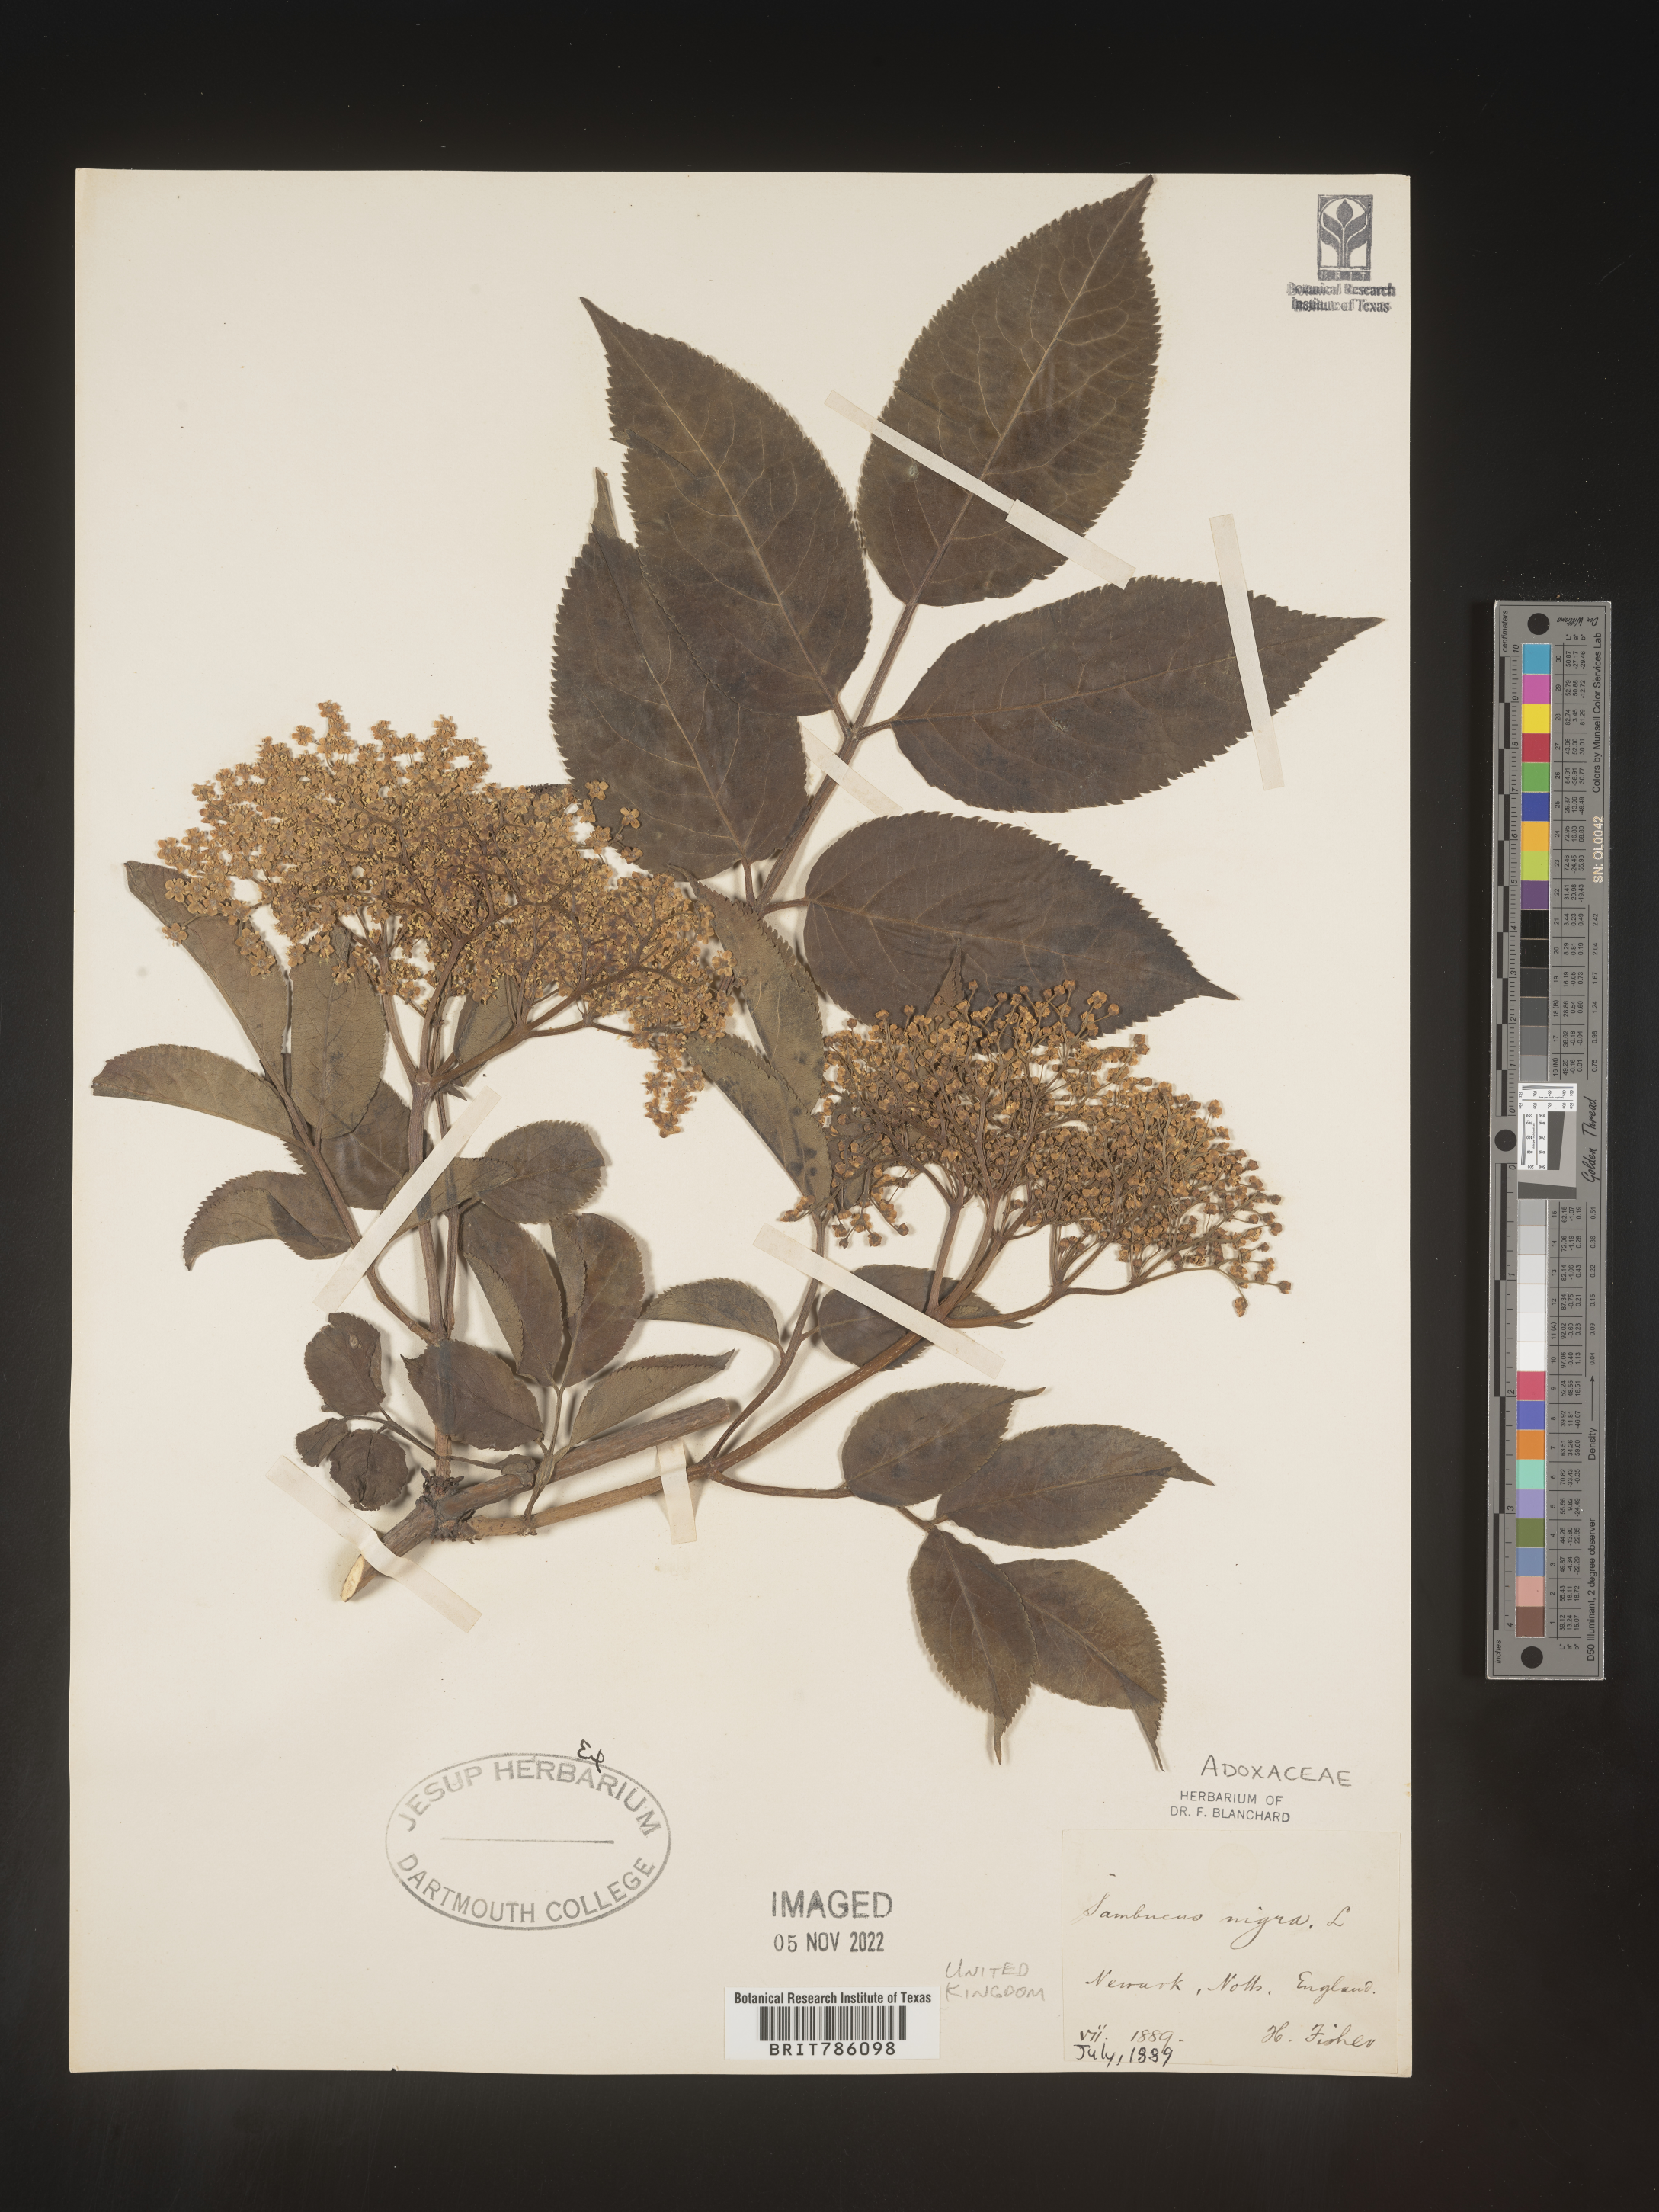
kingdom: Plantae
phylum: Tracheophyta
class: Magnoliopsida
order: Dipsacales
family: Viburnaceae
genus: Sambucus
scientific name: Sambucus
